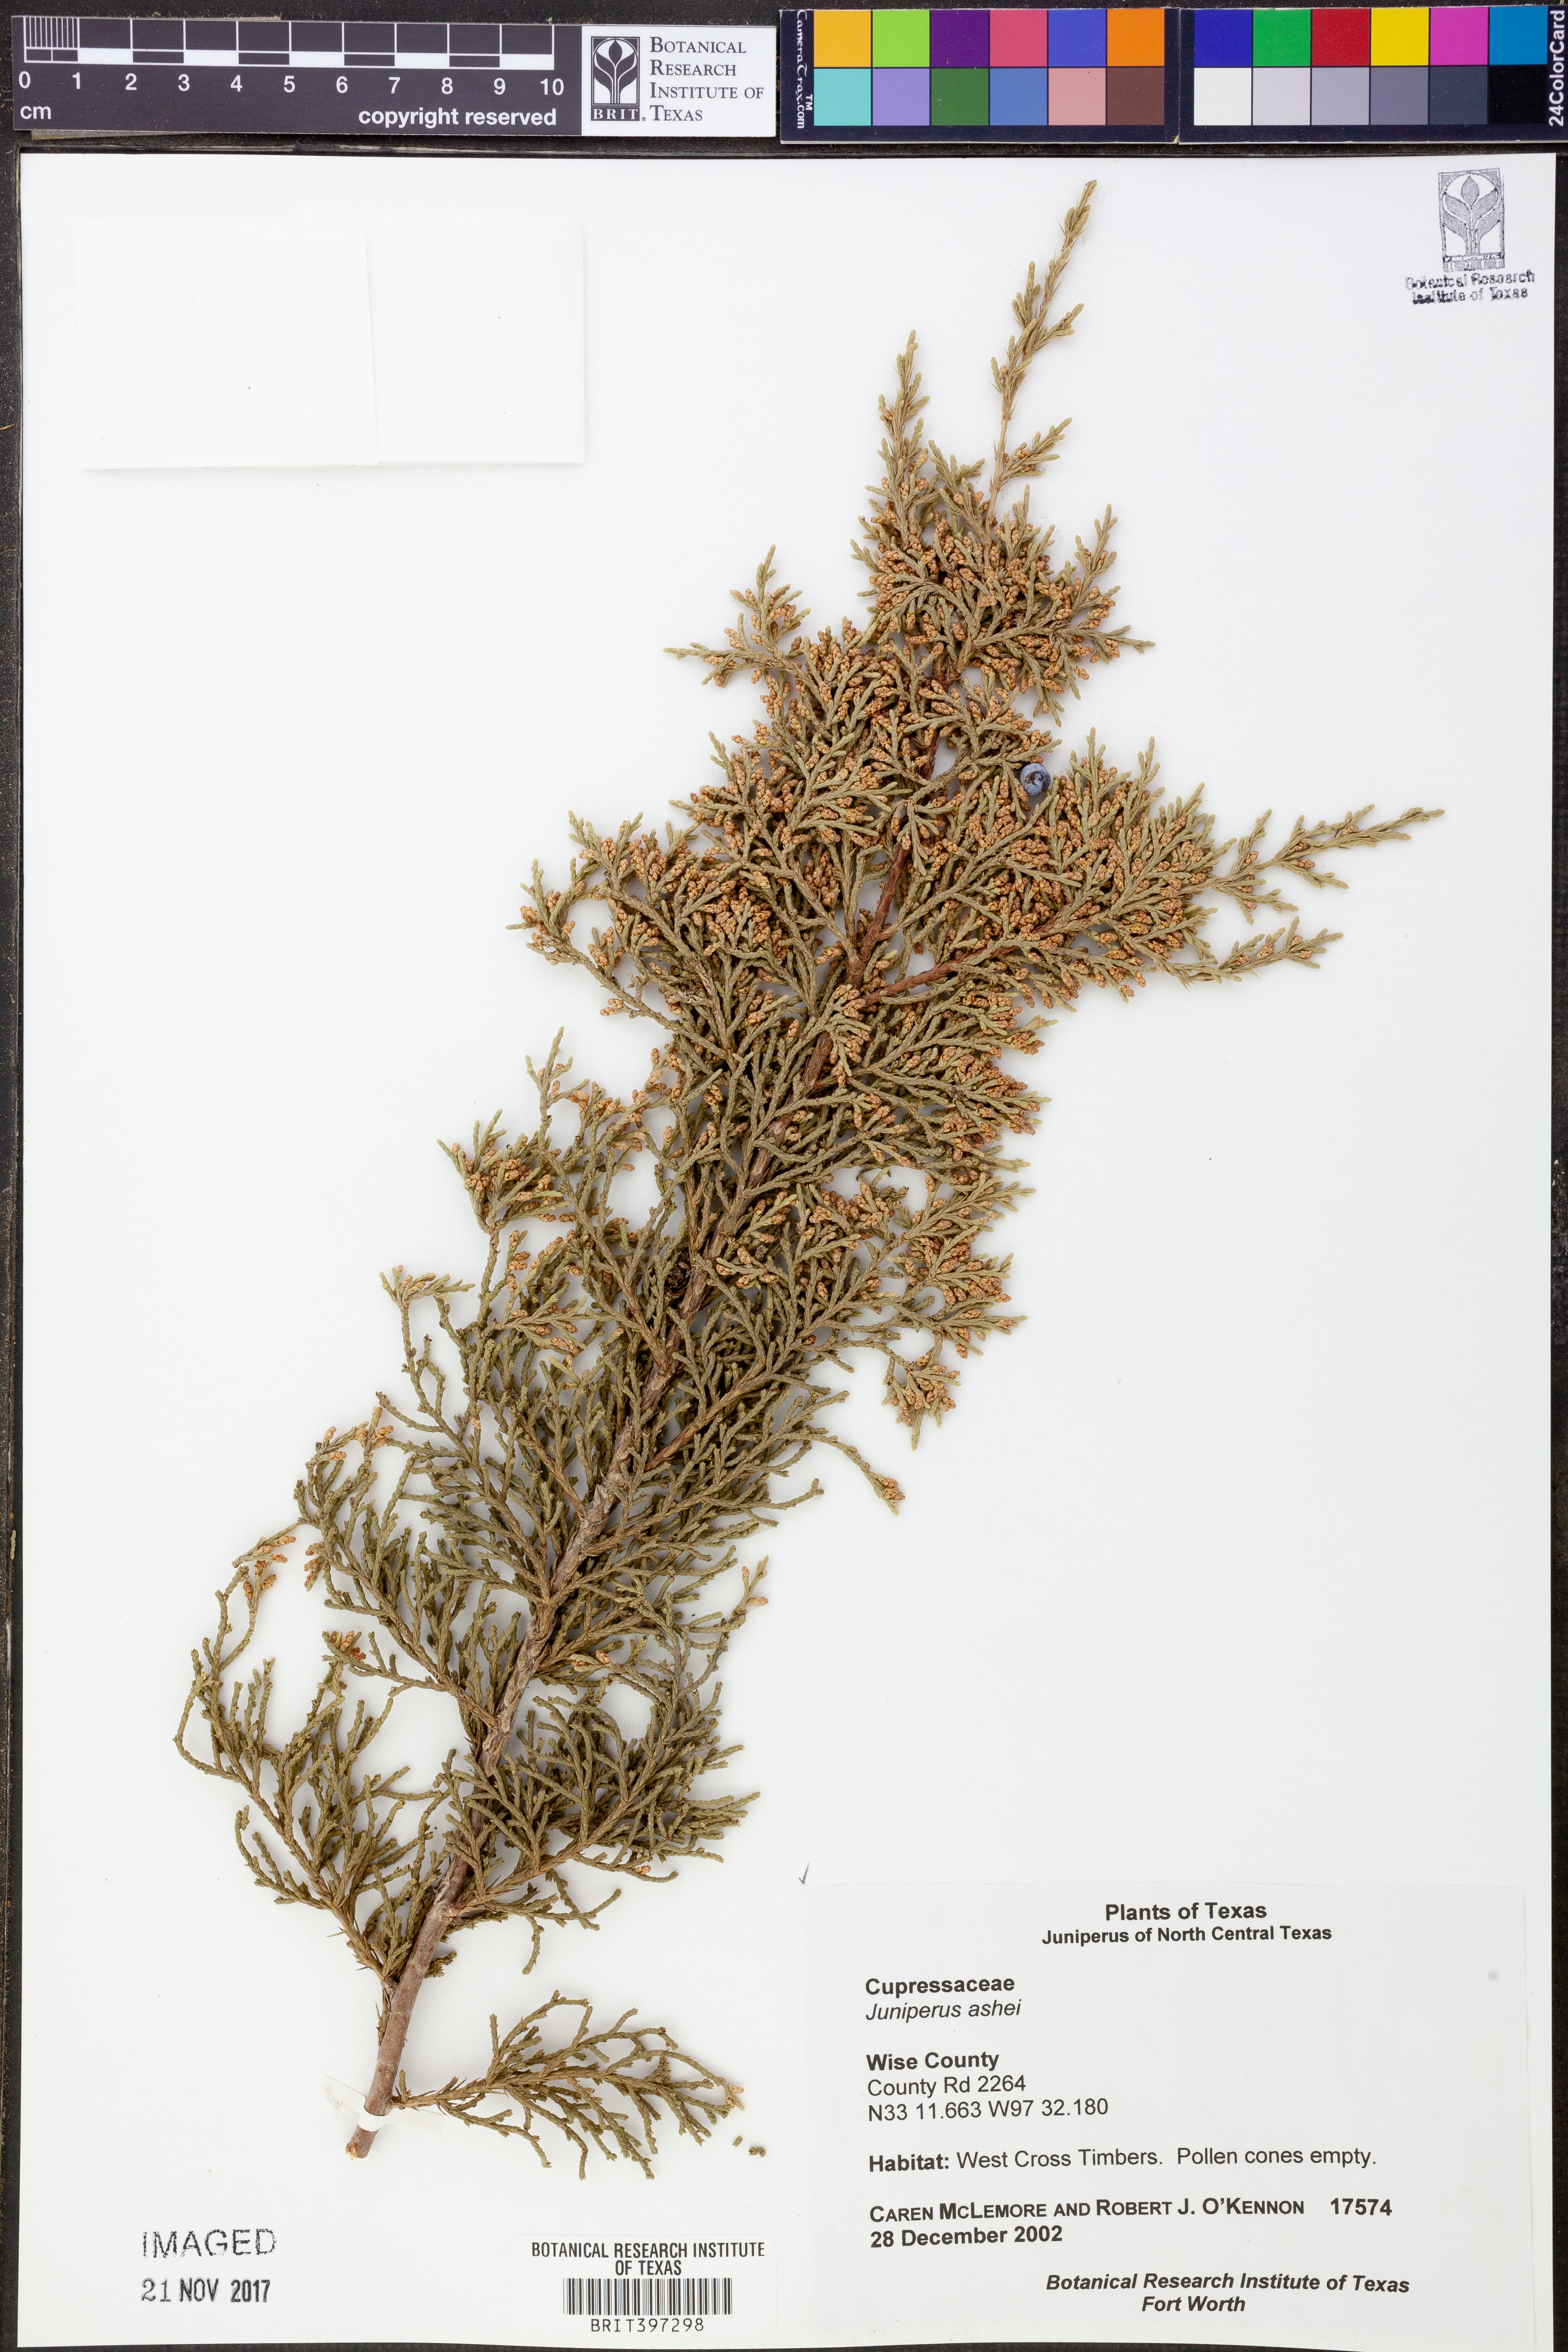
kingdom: Plantae
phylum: Tracheophyta
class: Pinopsida
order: Pinales
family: Cupressaceae
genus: Juniperus
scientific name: Juniperus ashei
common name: Mexican juniper
